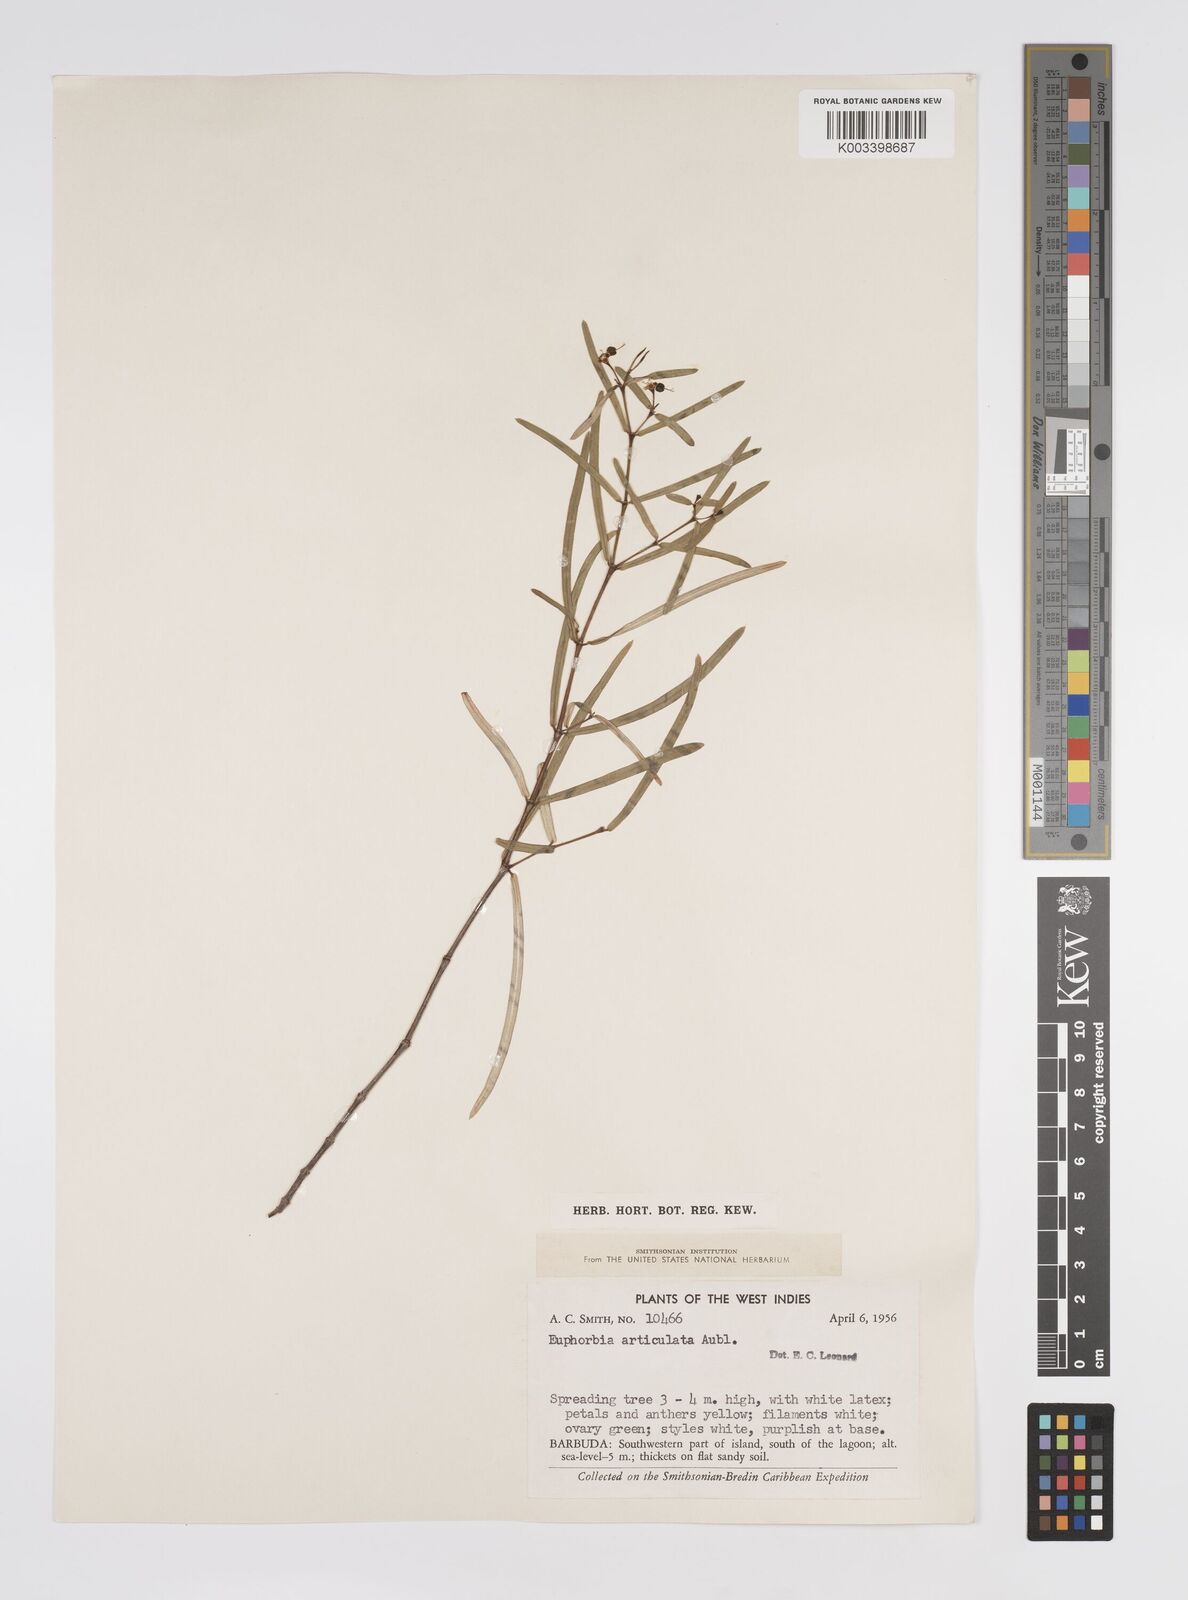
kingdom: Plantae
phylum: Tracheophyta
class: Magnoliopsida
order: Malpighiales
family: Euphorbiaceae
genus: Euphorbia
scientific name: Euphorbia articulata
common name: Jointed sandmat
